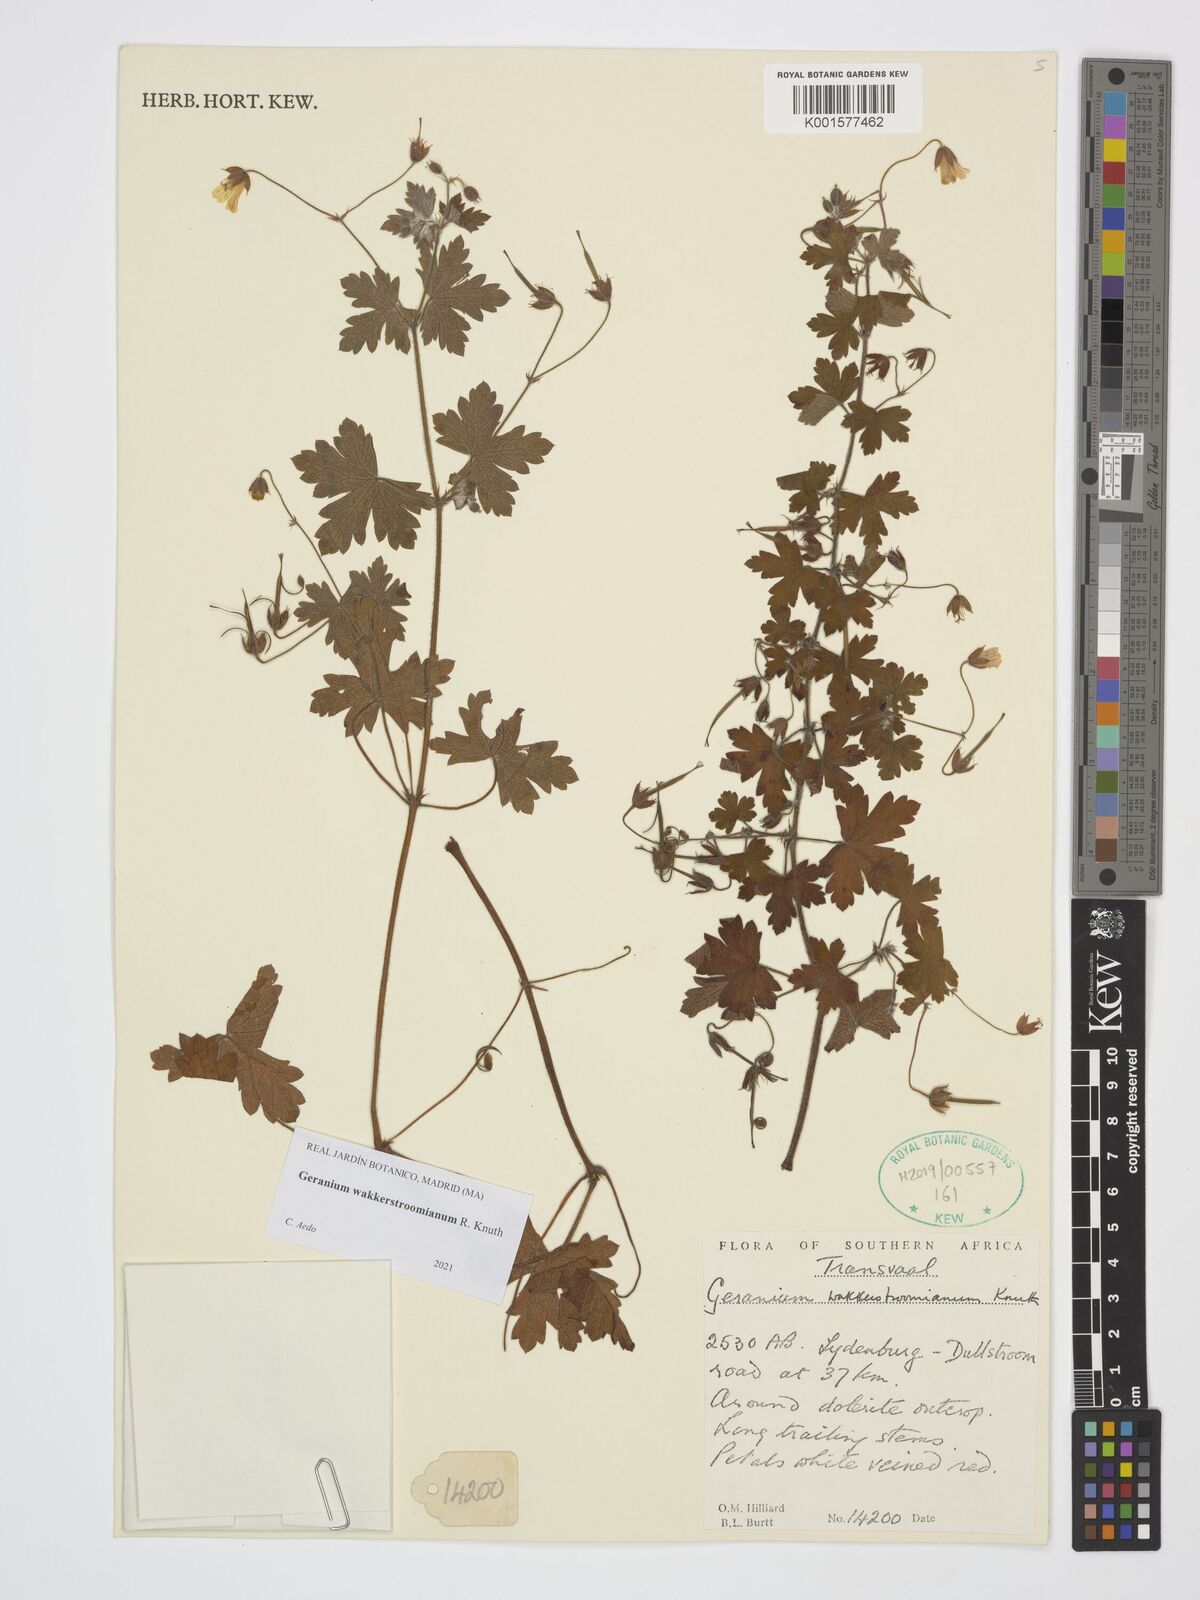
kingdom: Plantae
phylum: Tracheophyta
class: Magnoliopsida
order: Geraniales
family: Geraniaceae
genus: Geranium
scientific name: Geranium wakkerstroomianum
